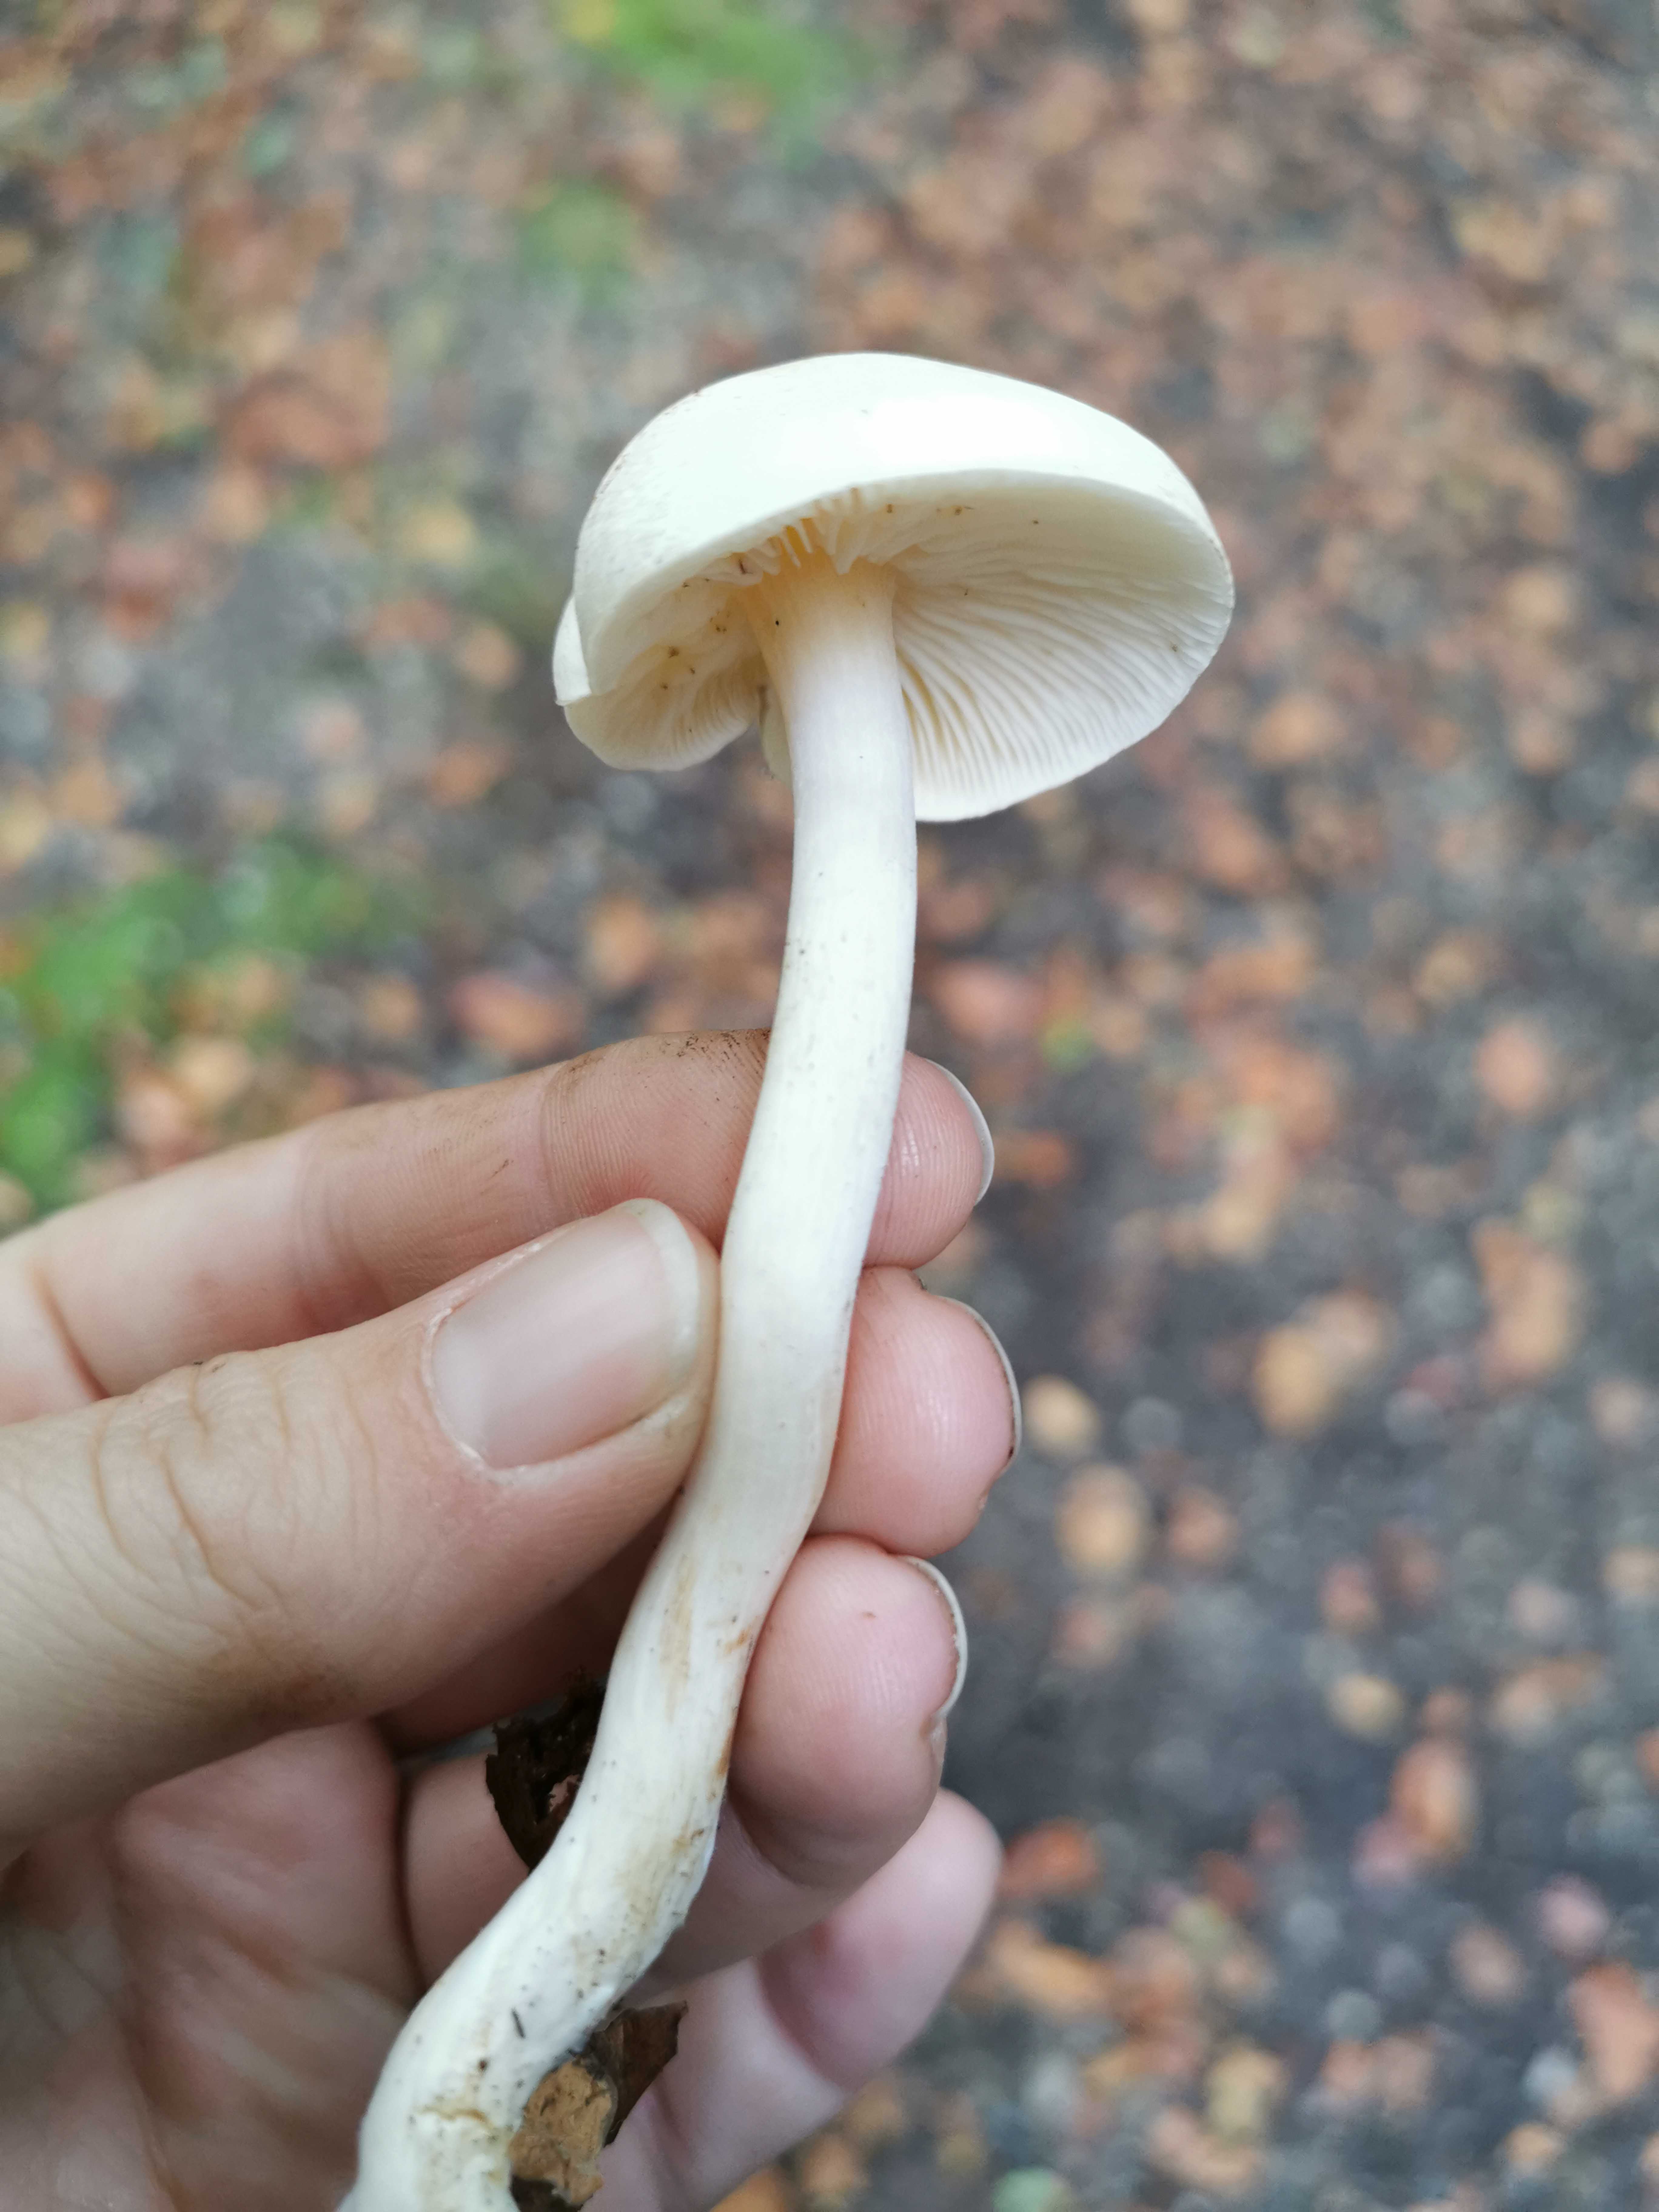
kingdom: Fungi
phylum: Basidiomycota
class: Agaricomycetes
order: Agaricales
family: Tricholomataceae
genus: Tricholoma
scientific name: Tricholoma
